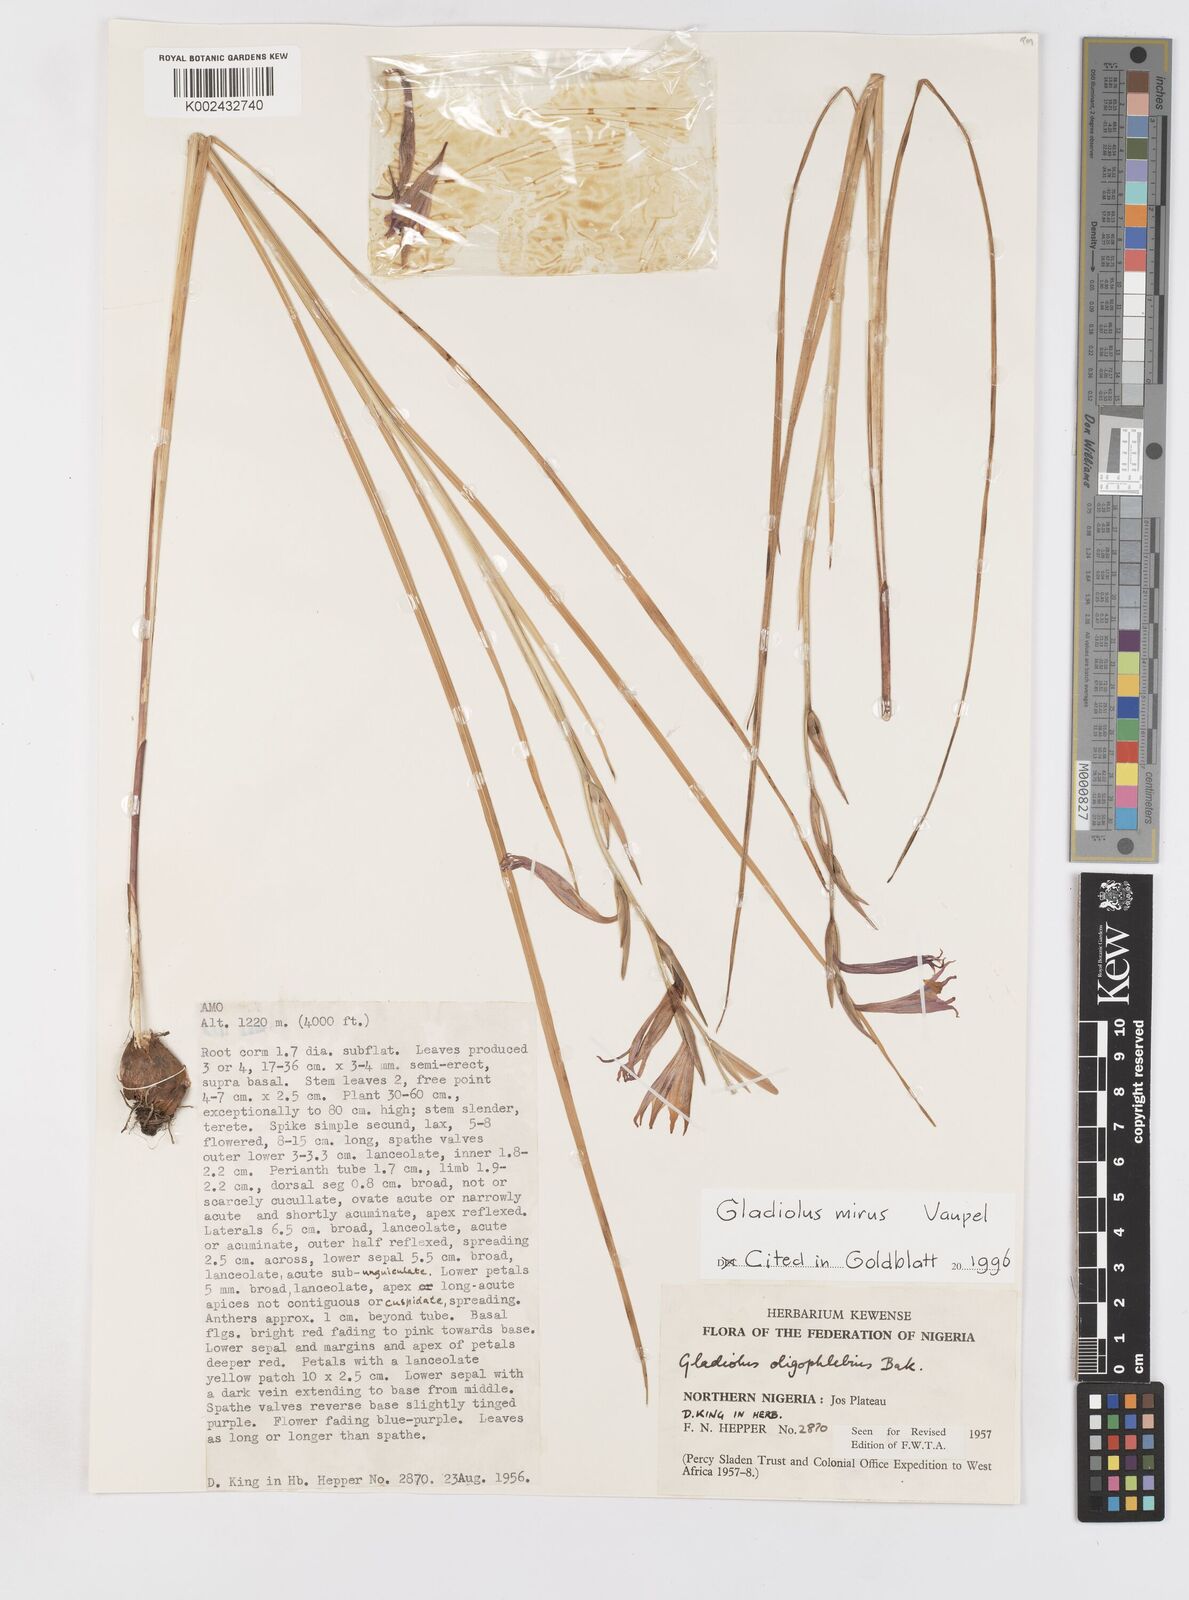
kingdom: Plantae
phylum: Tracheophyta
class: Liliopsida
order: Asparagales
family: Iridaceae
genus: Gladiolus
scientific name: Gladiolus mirus
